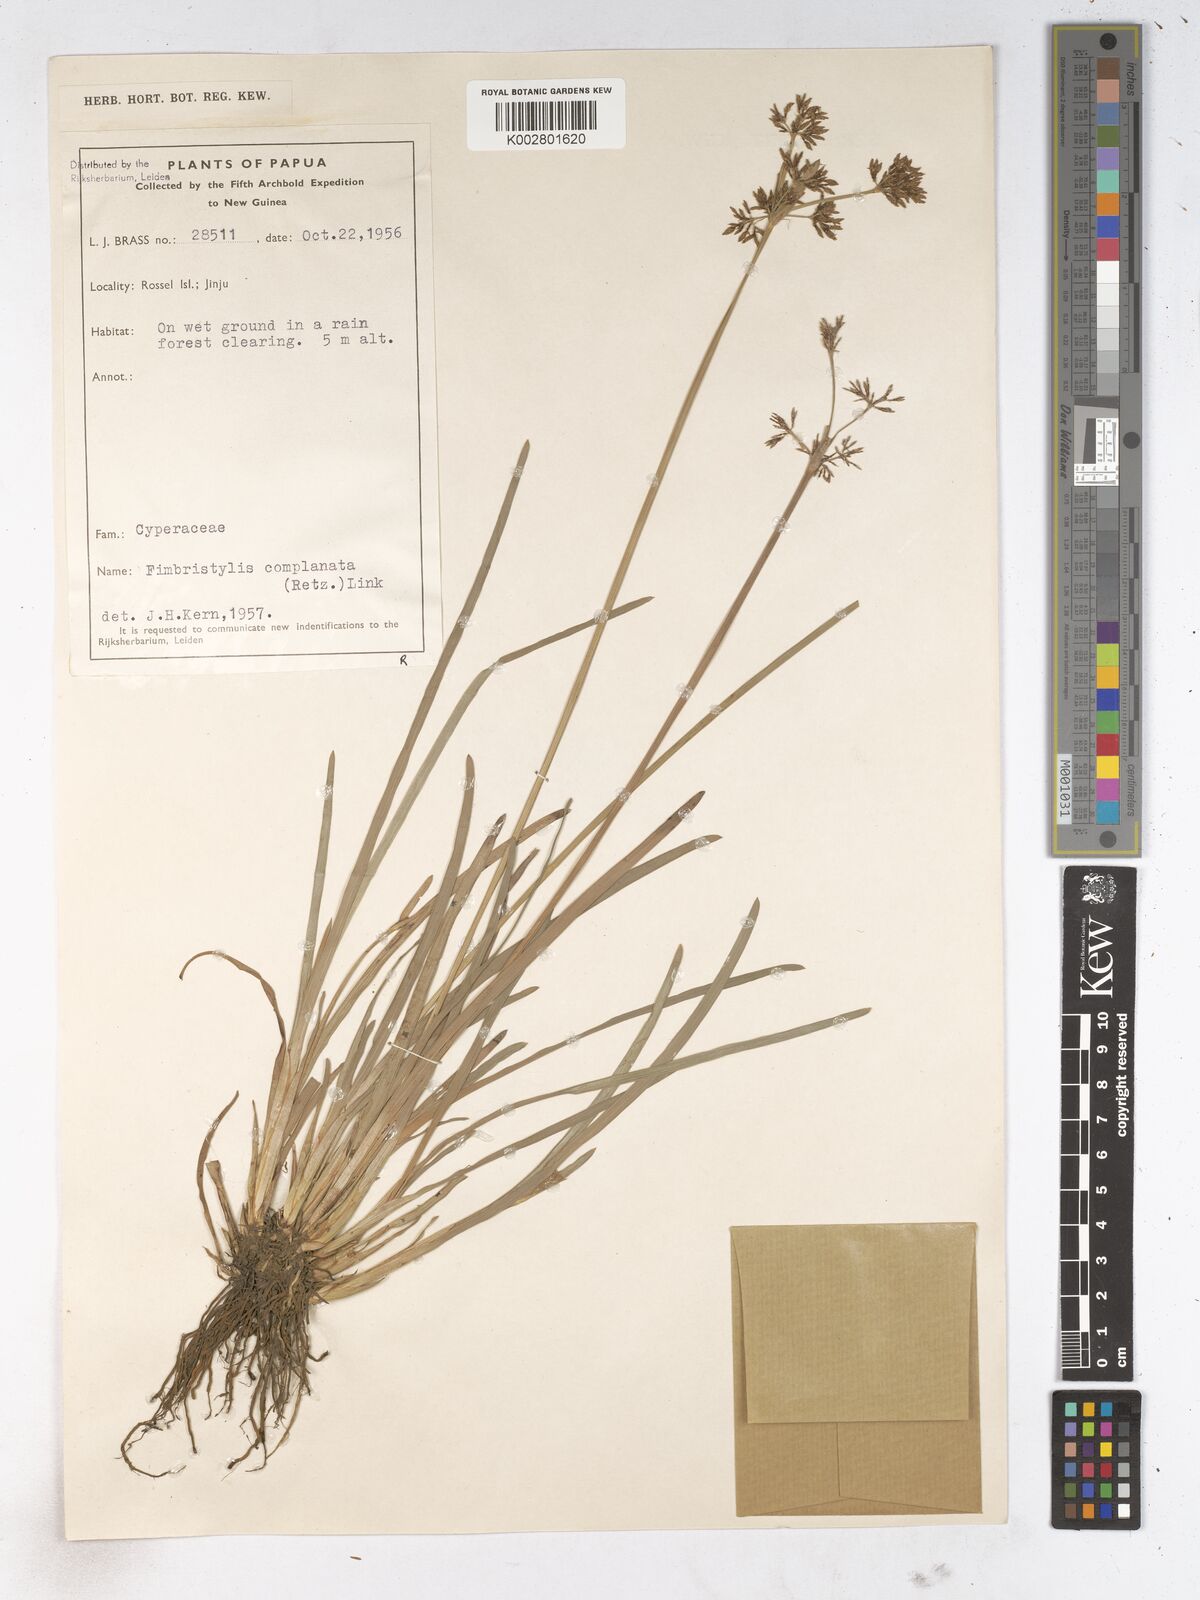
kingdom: Plantae
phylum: Tracheophyta
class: Liliopsida
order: Poales
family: Cyperaceae
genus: Fimbristylis
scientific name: Fimbristylis complanata
